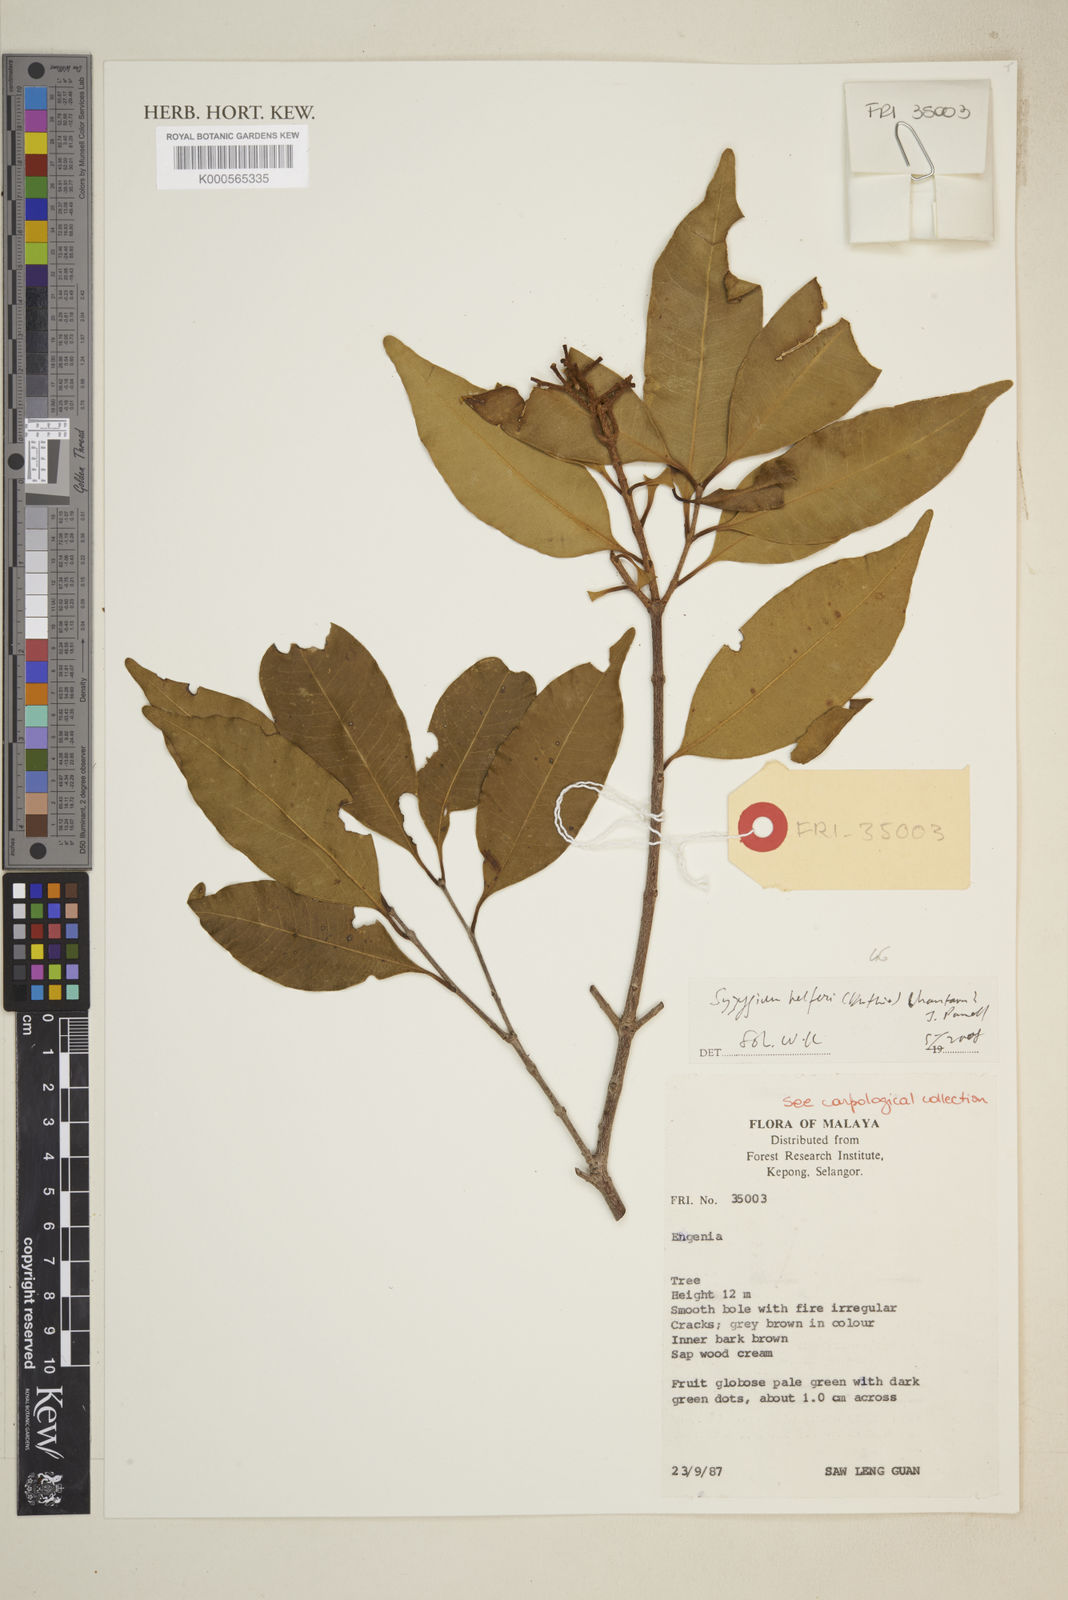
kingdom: Plantae
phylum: Tracheophyta
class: Magnoliopsida
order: Myrtales
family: Myrtaceae
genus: Syzygium
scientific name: Syzygium helferi
